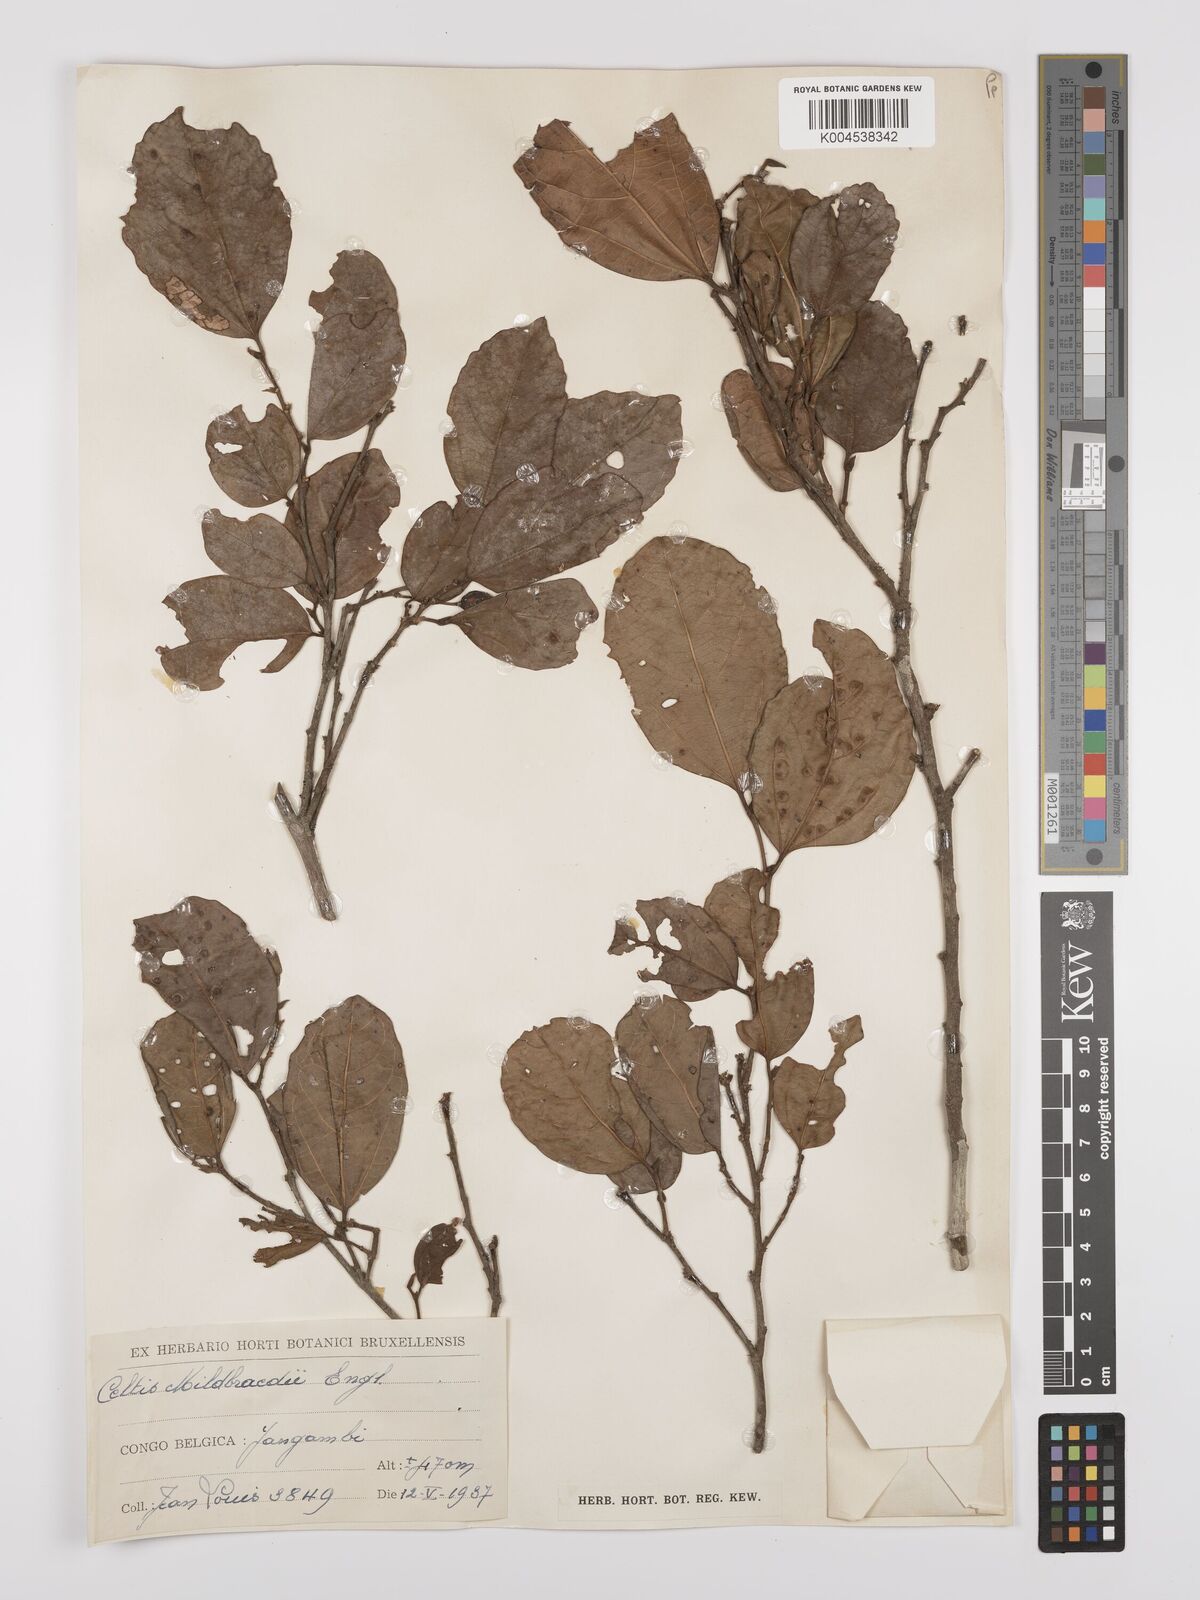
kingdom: Plantae
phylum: Tracheophyta
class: Magnoliopsida
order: Rosales
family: Cannabaceae
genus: Celtis
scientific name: Celtis mildbraedii
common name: Red-fruited stinkwood
